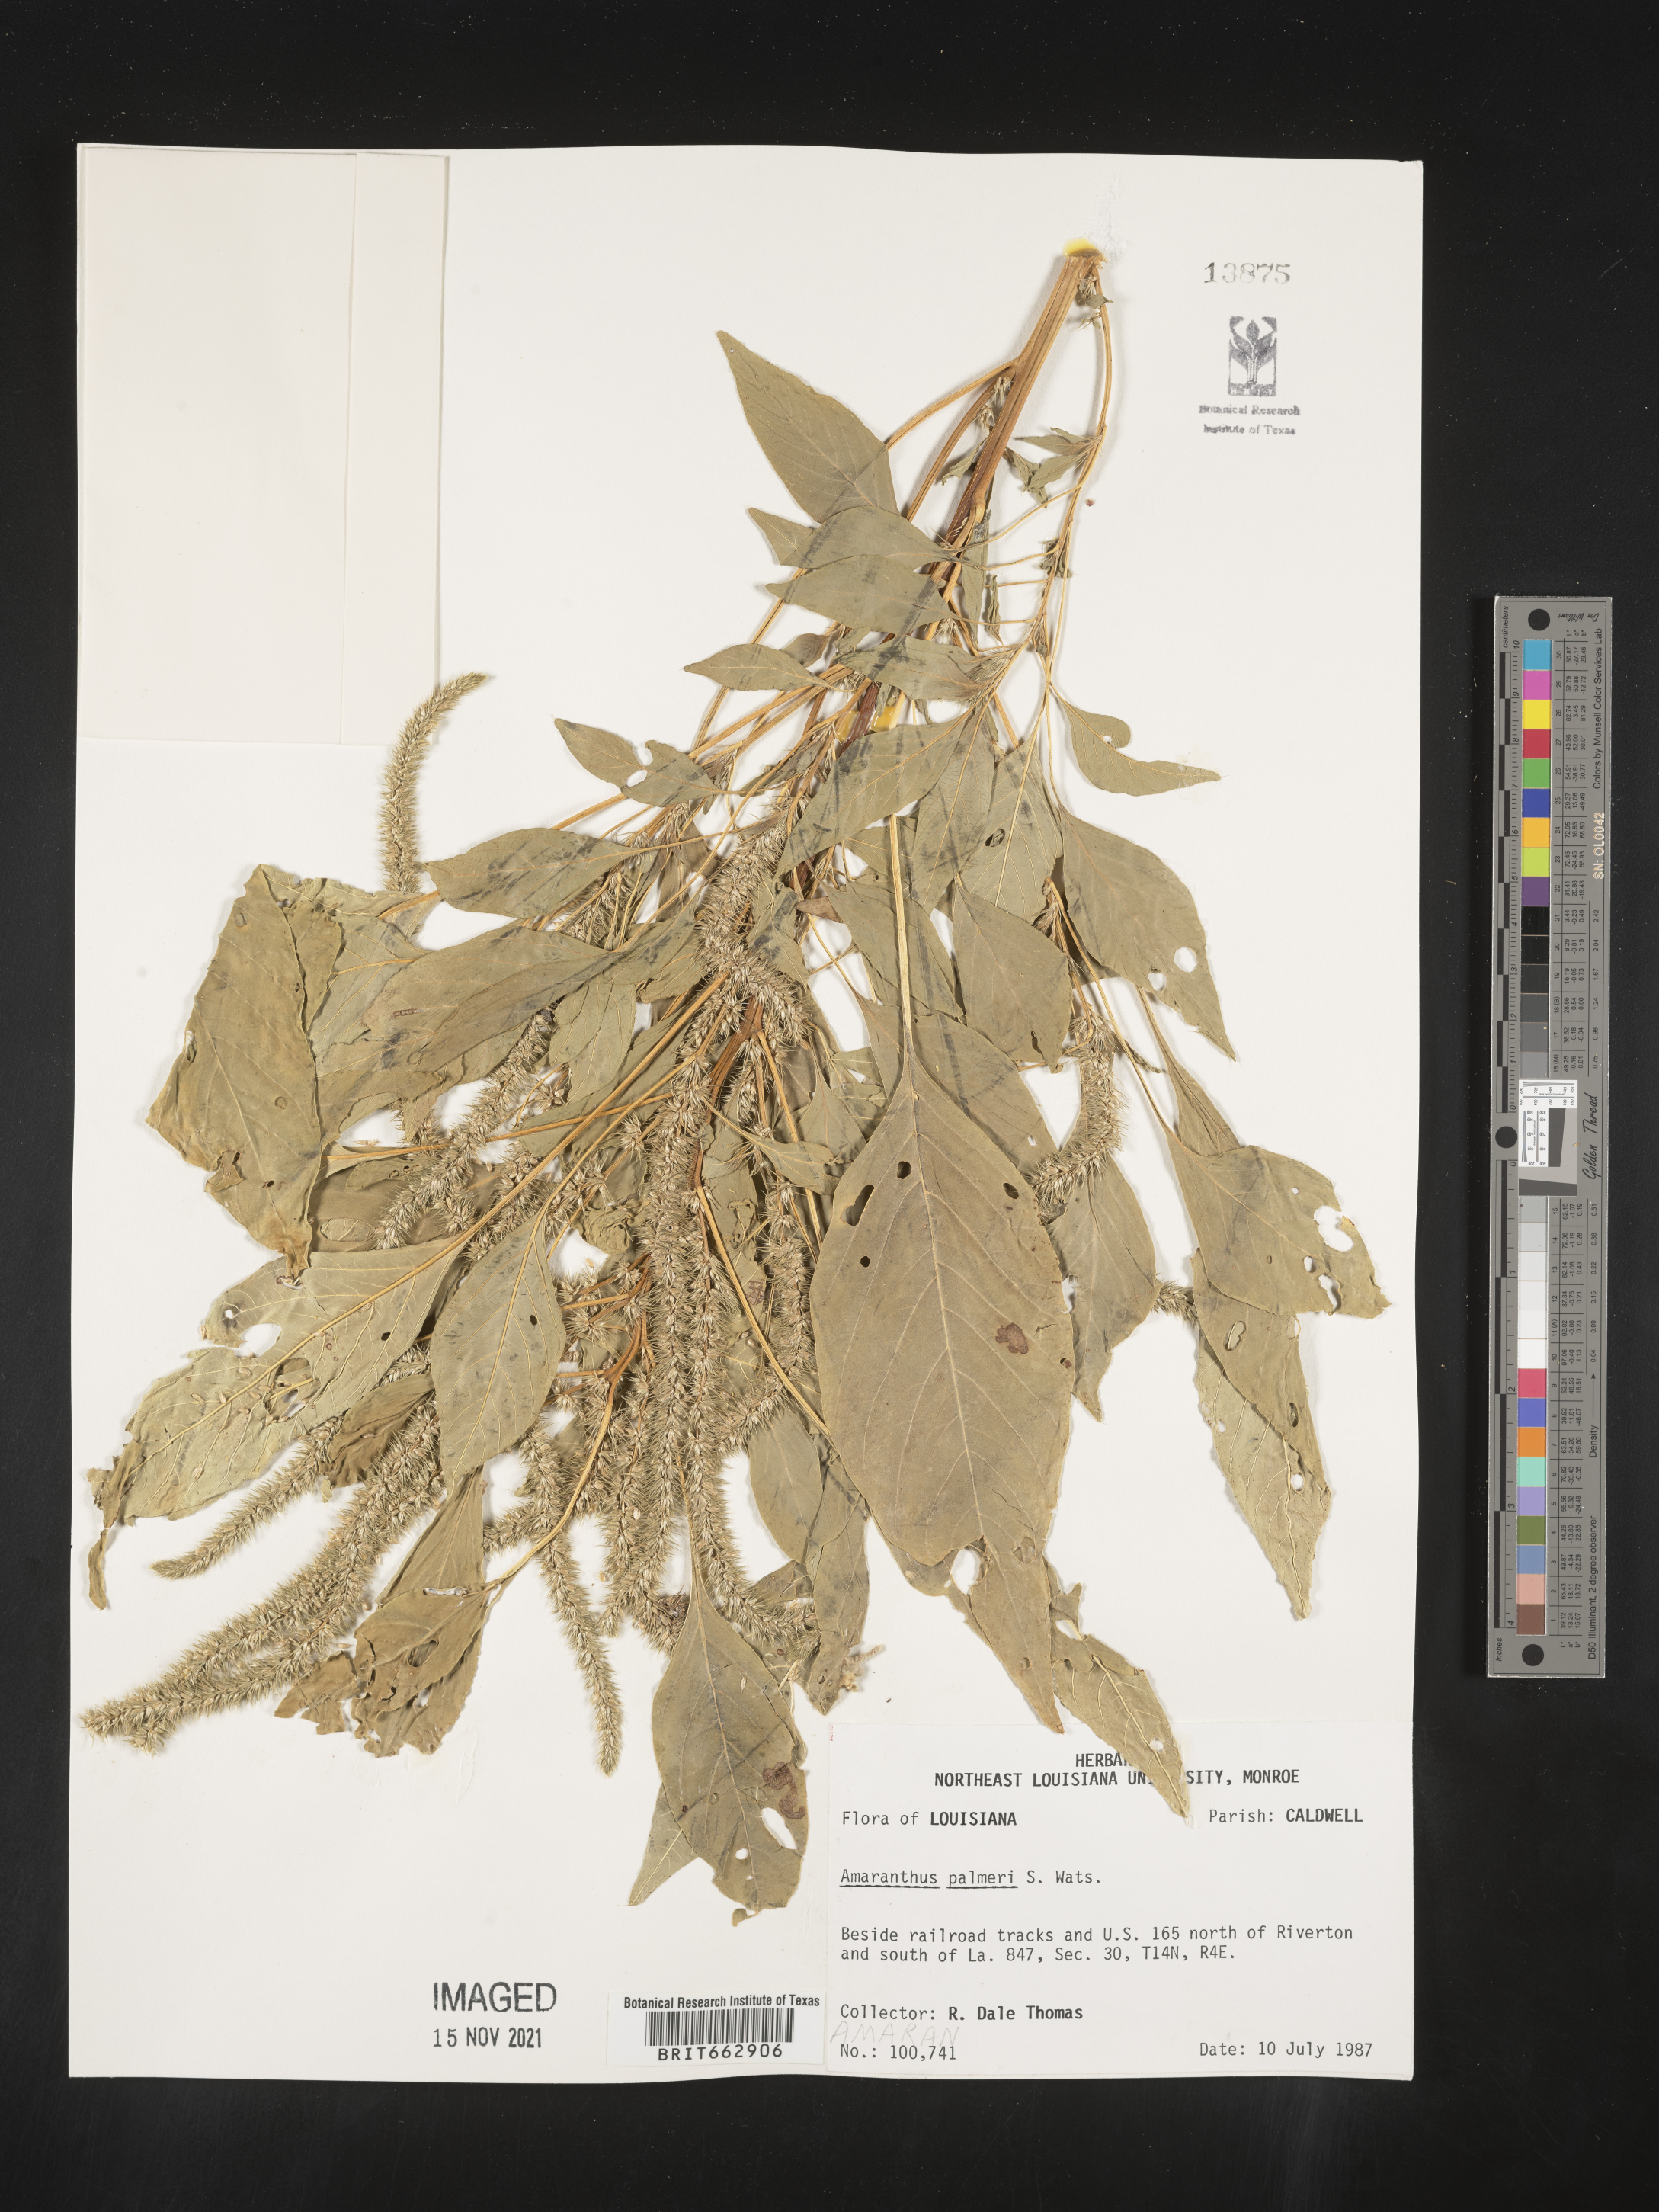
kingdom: Plantae
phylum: Tracheophyta
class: Magnoliopsida
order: Caryophyllales
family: Amaranthaceae
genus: Amaranthus
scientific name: Amaranthus palmeri
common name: Dioecious amaranth
